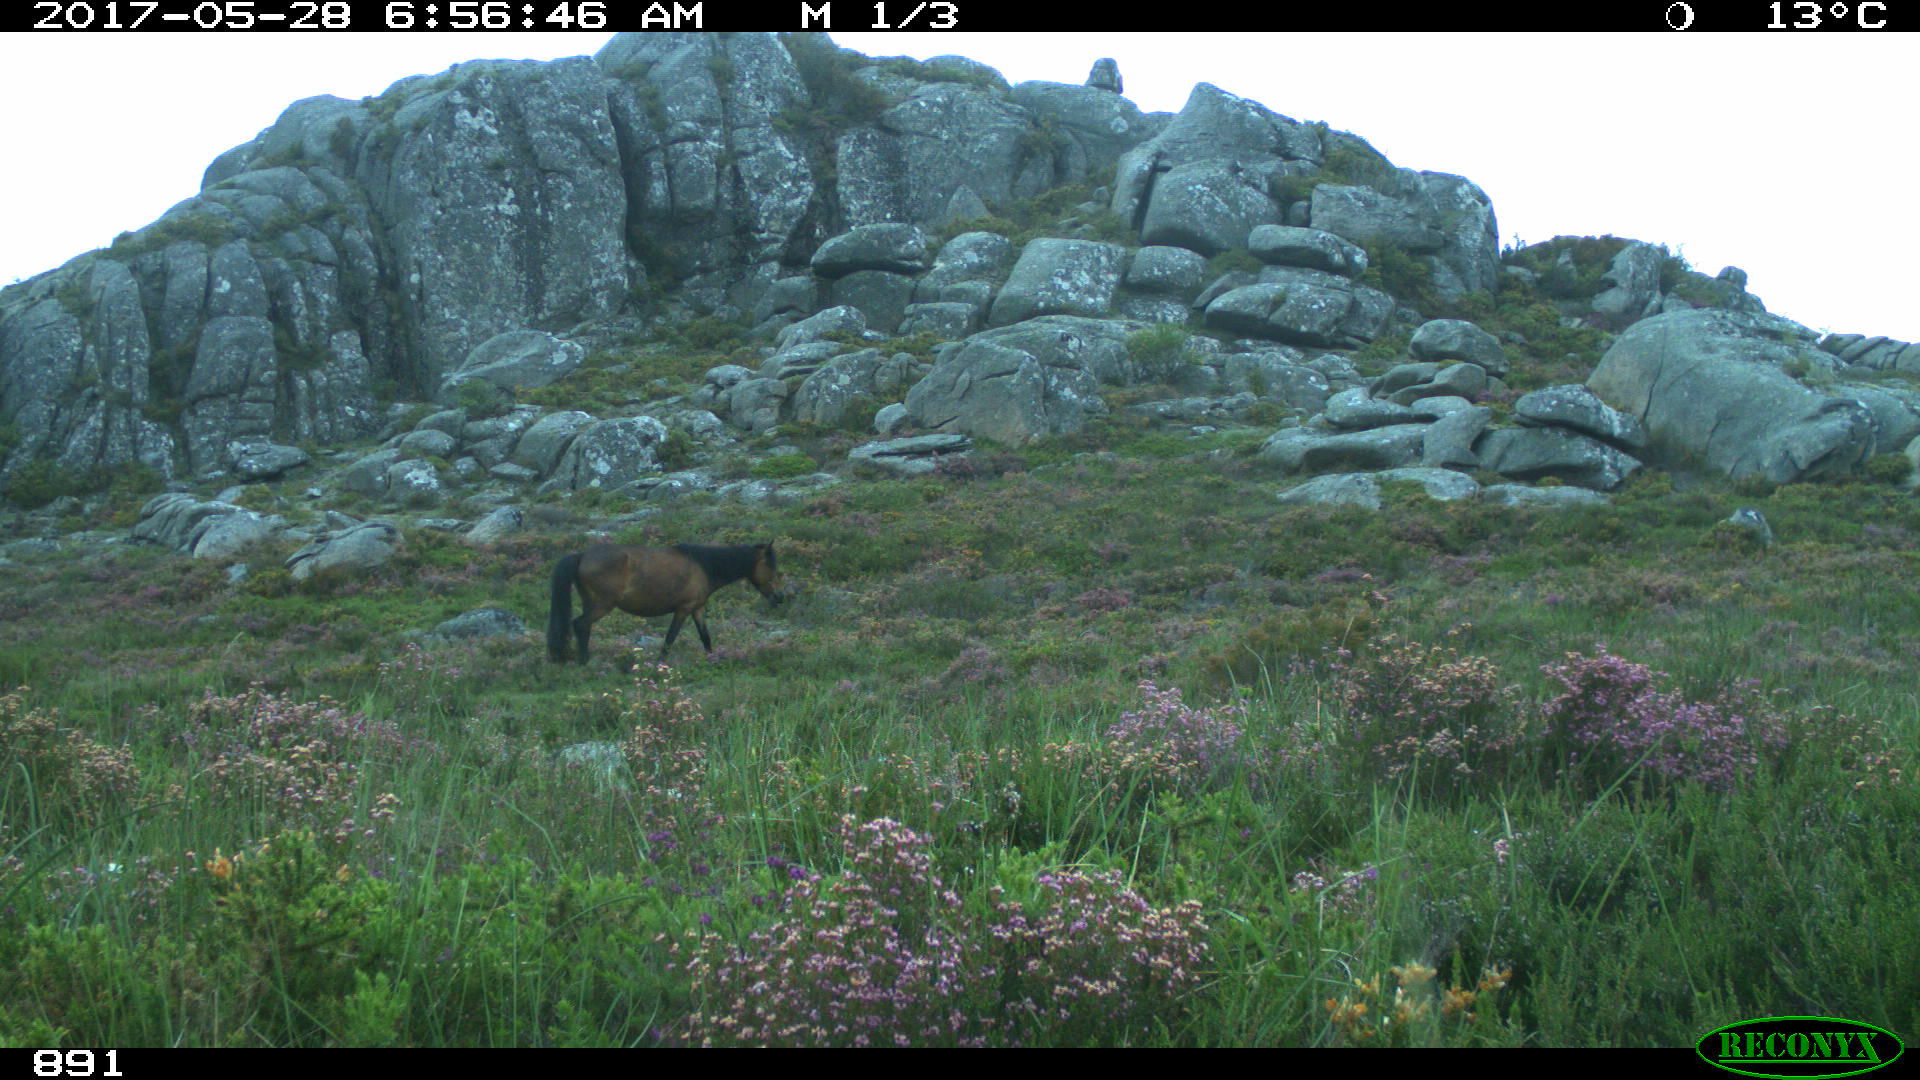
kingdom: Animalia
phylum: Chordata
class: Mammalia
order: Perissodactyla
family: Equidae
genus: Equus
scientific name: Equus caballus
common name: Horse
